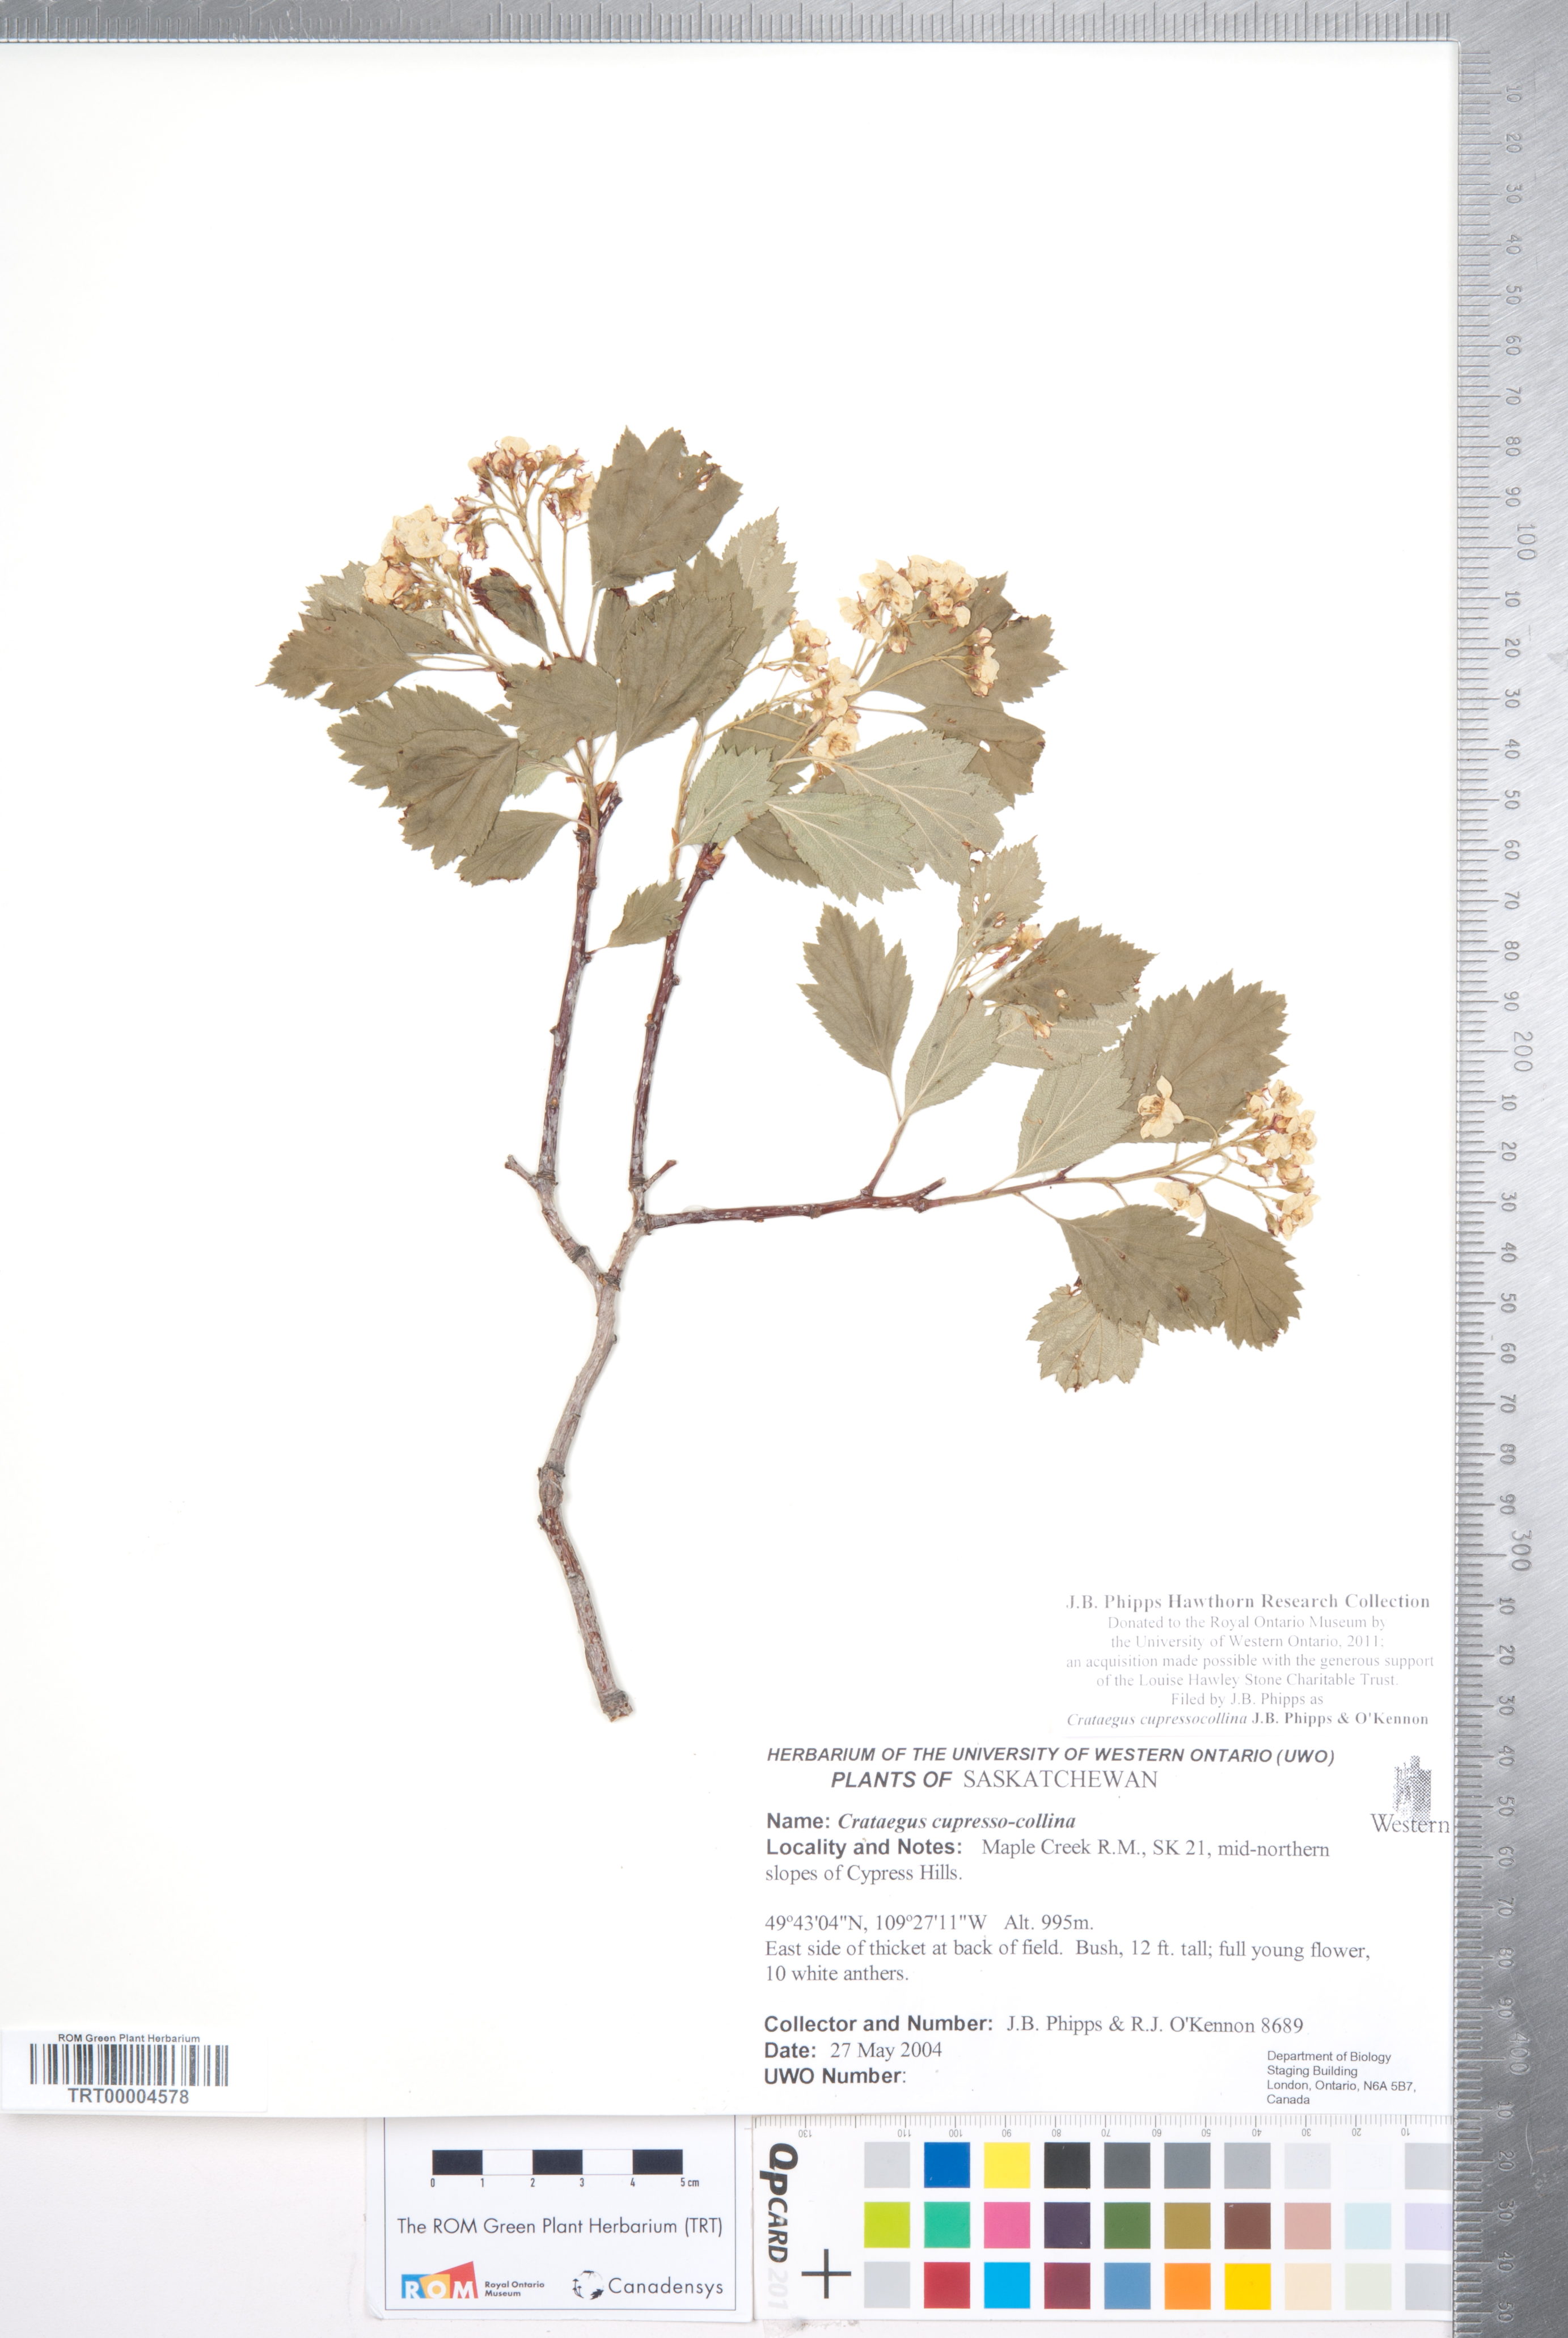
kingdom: Plantae
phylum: Tracheophyta
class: Magnoliopsida
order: Rosales
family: Rosaceae
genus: Crataegus
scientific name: Crataegus cupressocollina
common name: Cypress hills hawthorn
